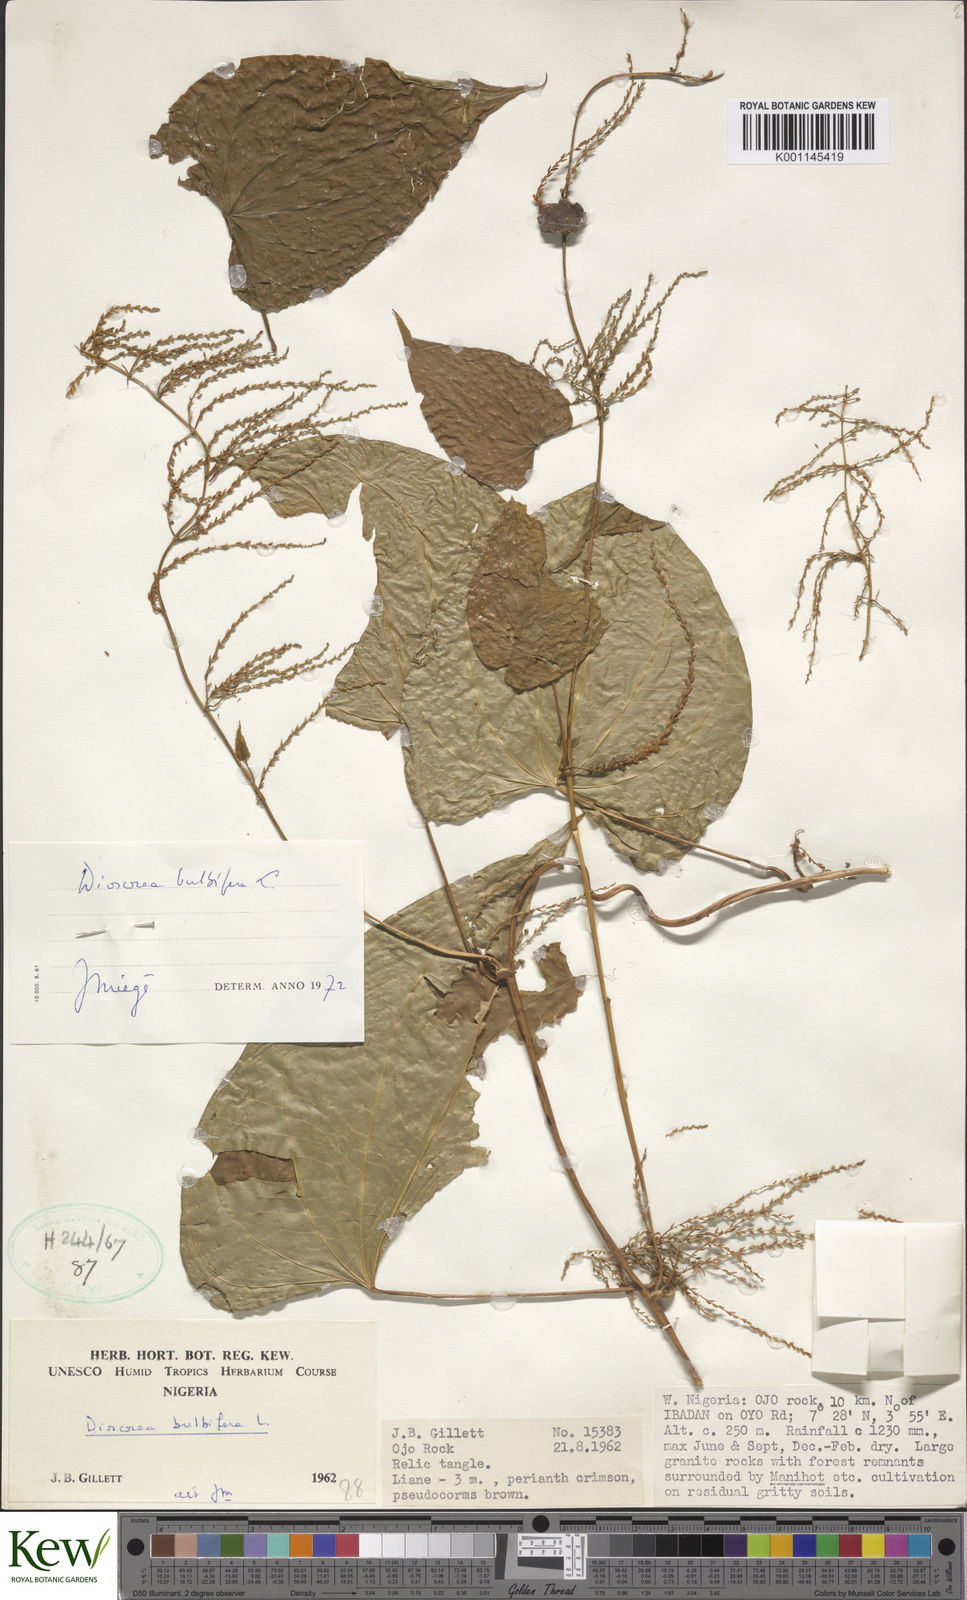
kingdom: Plantae
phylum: Tracheophyta
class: Liliopsida
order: Dioscoreales
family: Dioscoreaceae
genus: Dioscorea
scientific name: Dioscorea bulbifera
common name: Air yam
